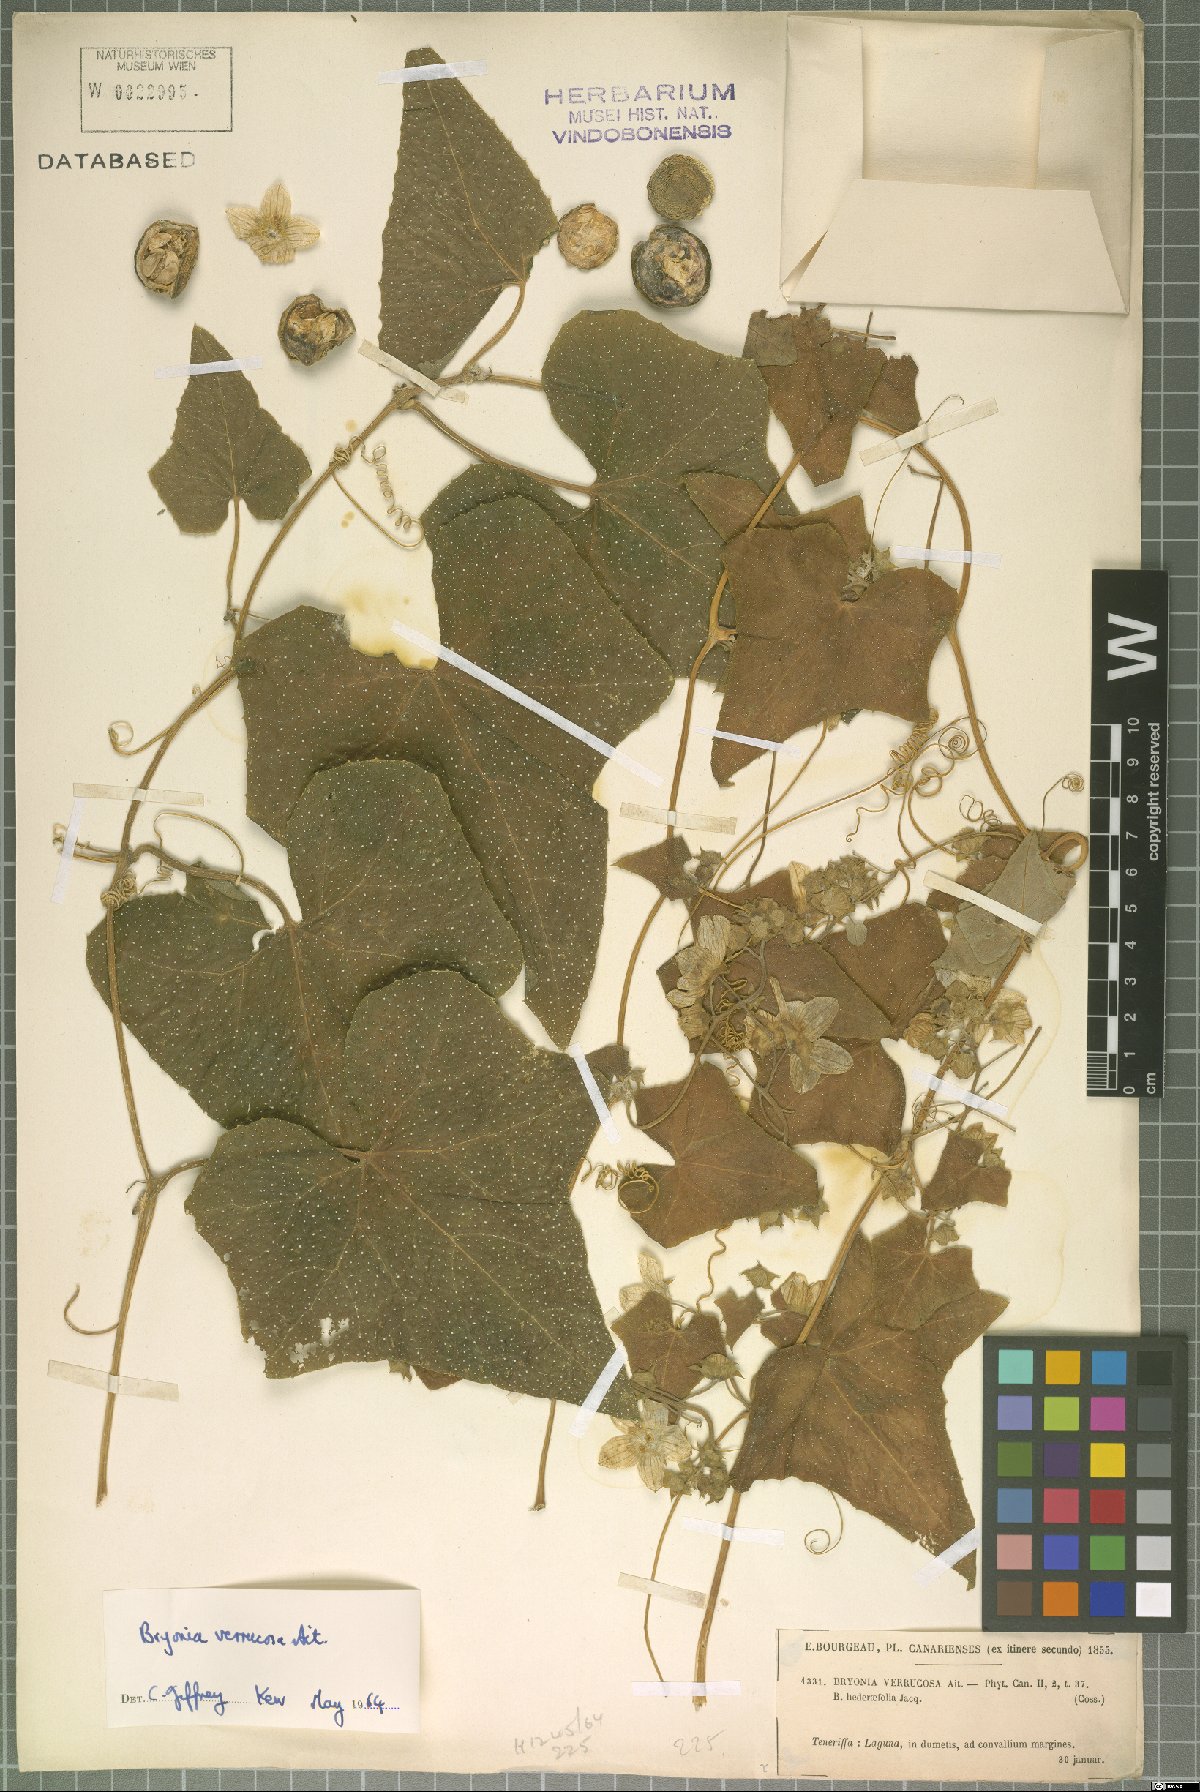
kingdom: Plantae
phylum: Tracheophyta
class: Magnoliopsida
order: Cucurbitales
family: Cucurbitaceae
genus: Bryonia
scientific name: Bryonia verrucosa
